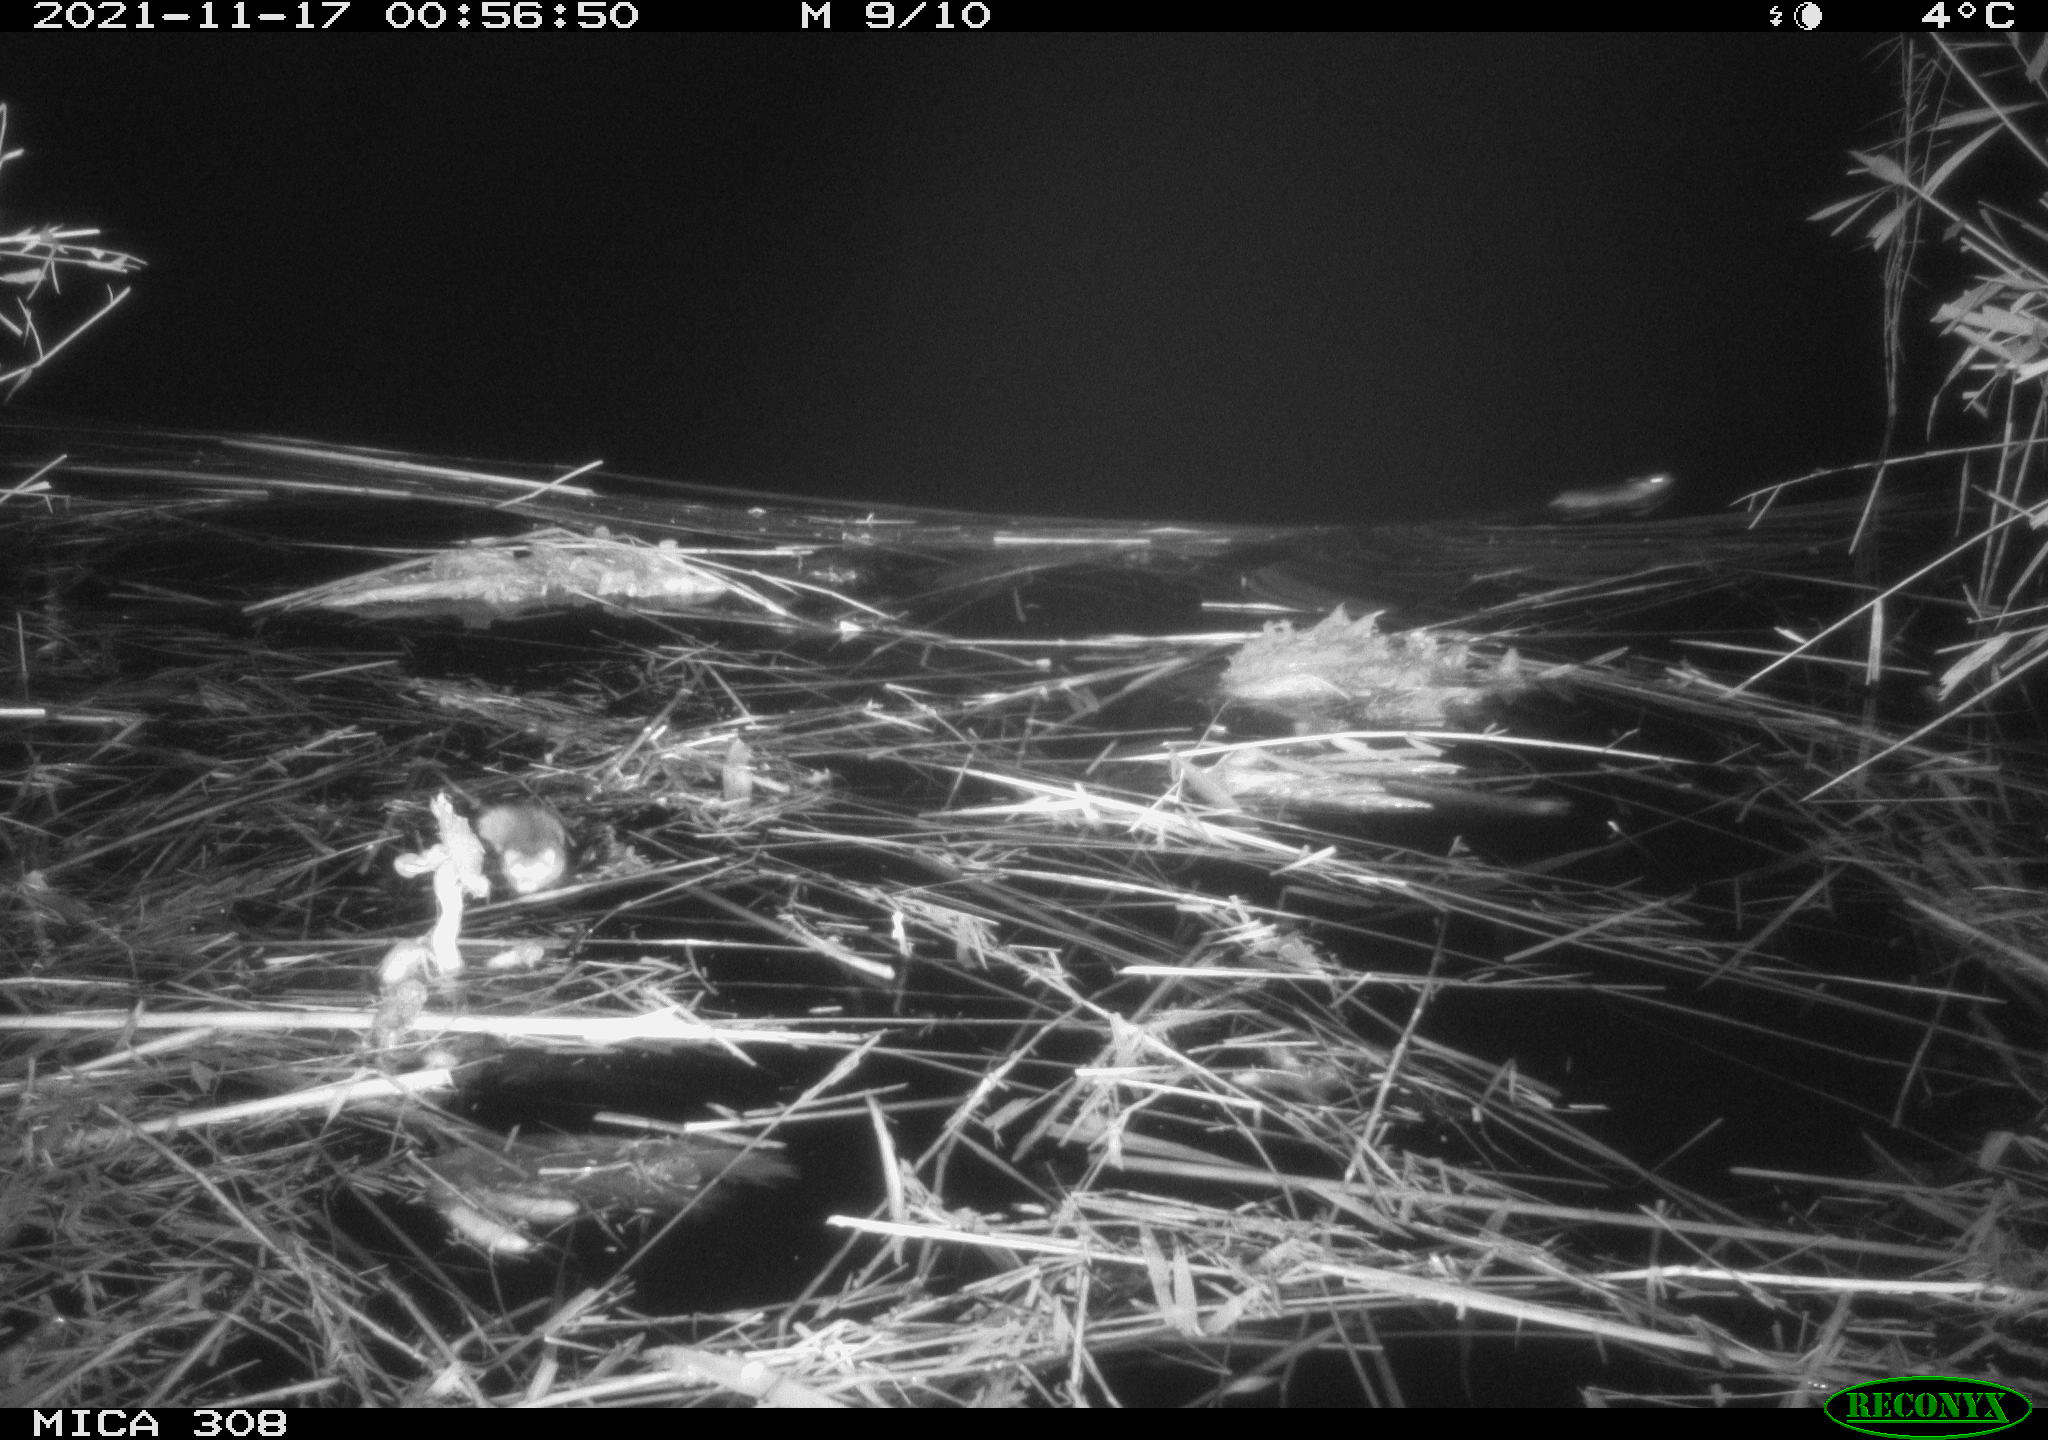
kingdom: Animalia
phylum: Chordata
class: Mammalia
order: Rodentia
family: Muridae
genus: Rattus
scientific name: Rattus norvegicus
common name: Brown rat
